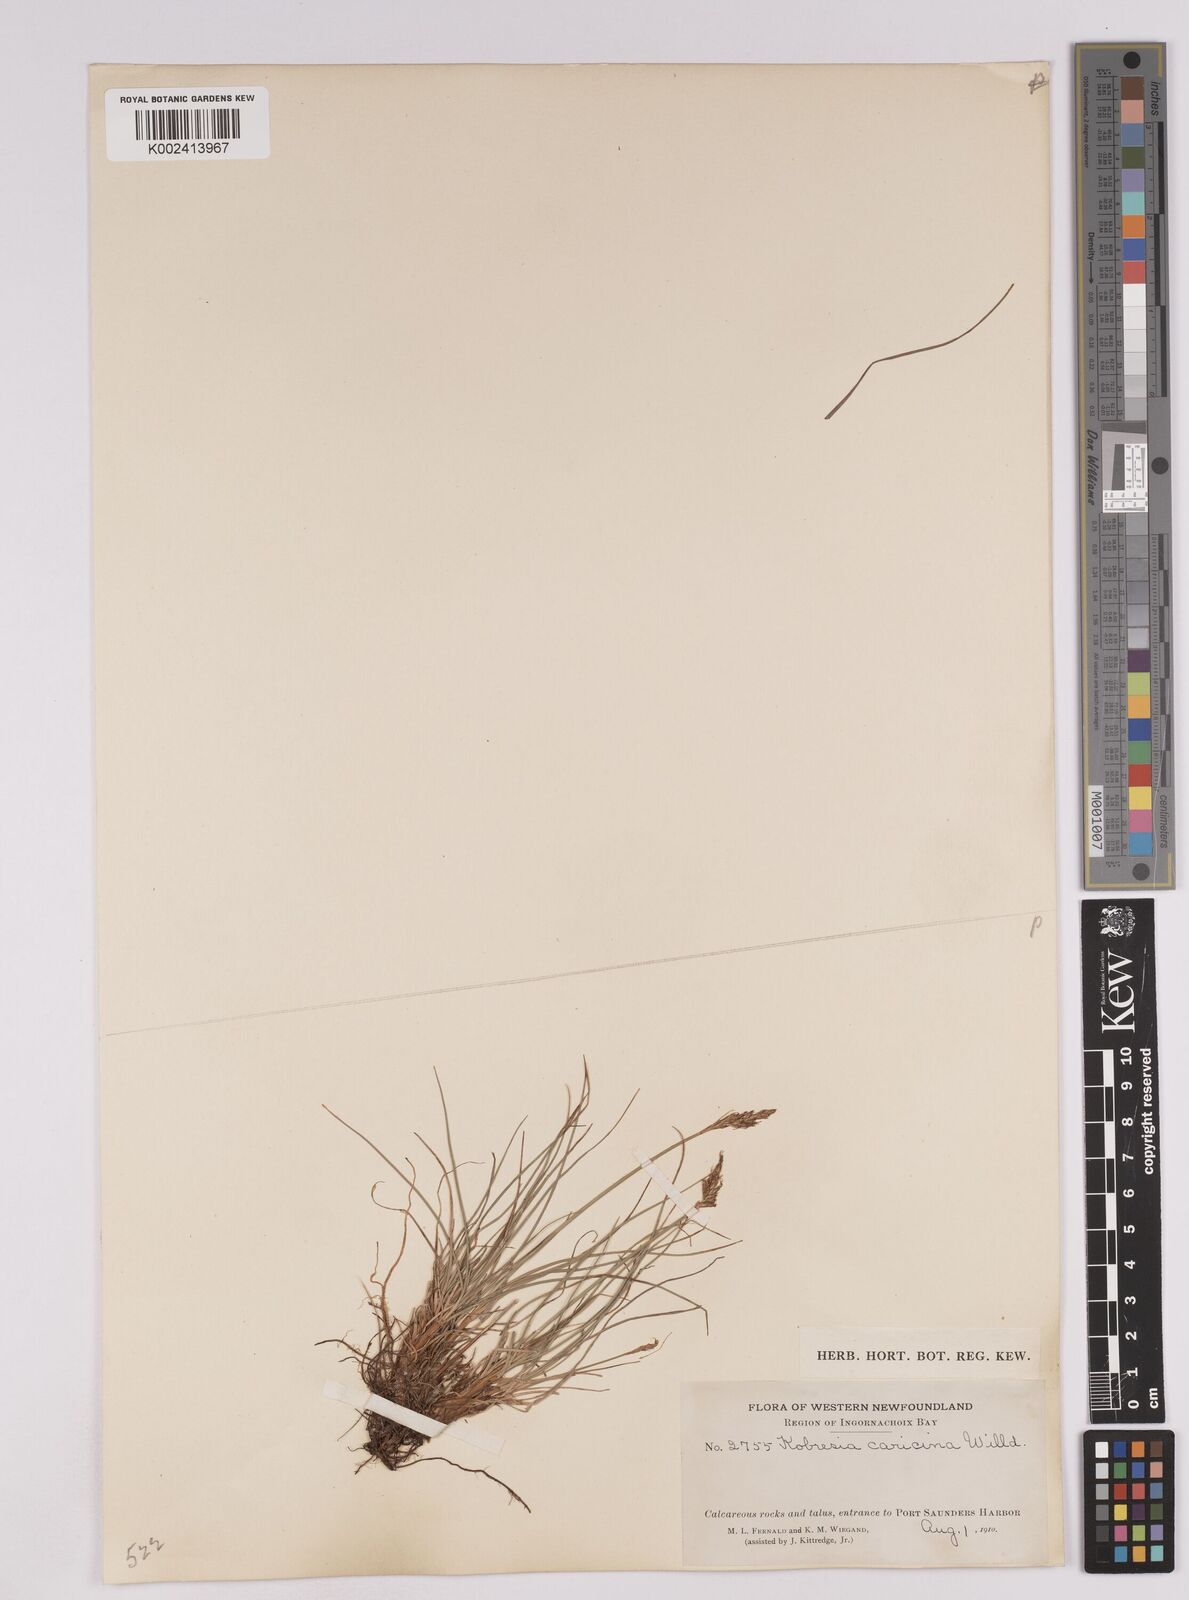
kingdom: Plantae
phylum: Tracheophyta
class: Liliopsida
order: Poales
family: Cyperaceae
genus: Carex
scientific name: Carex simpliciuscula
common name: Simple bog sedge
